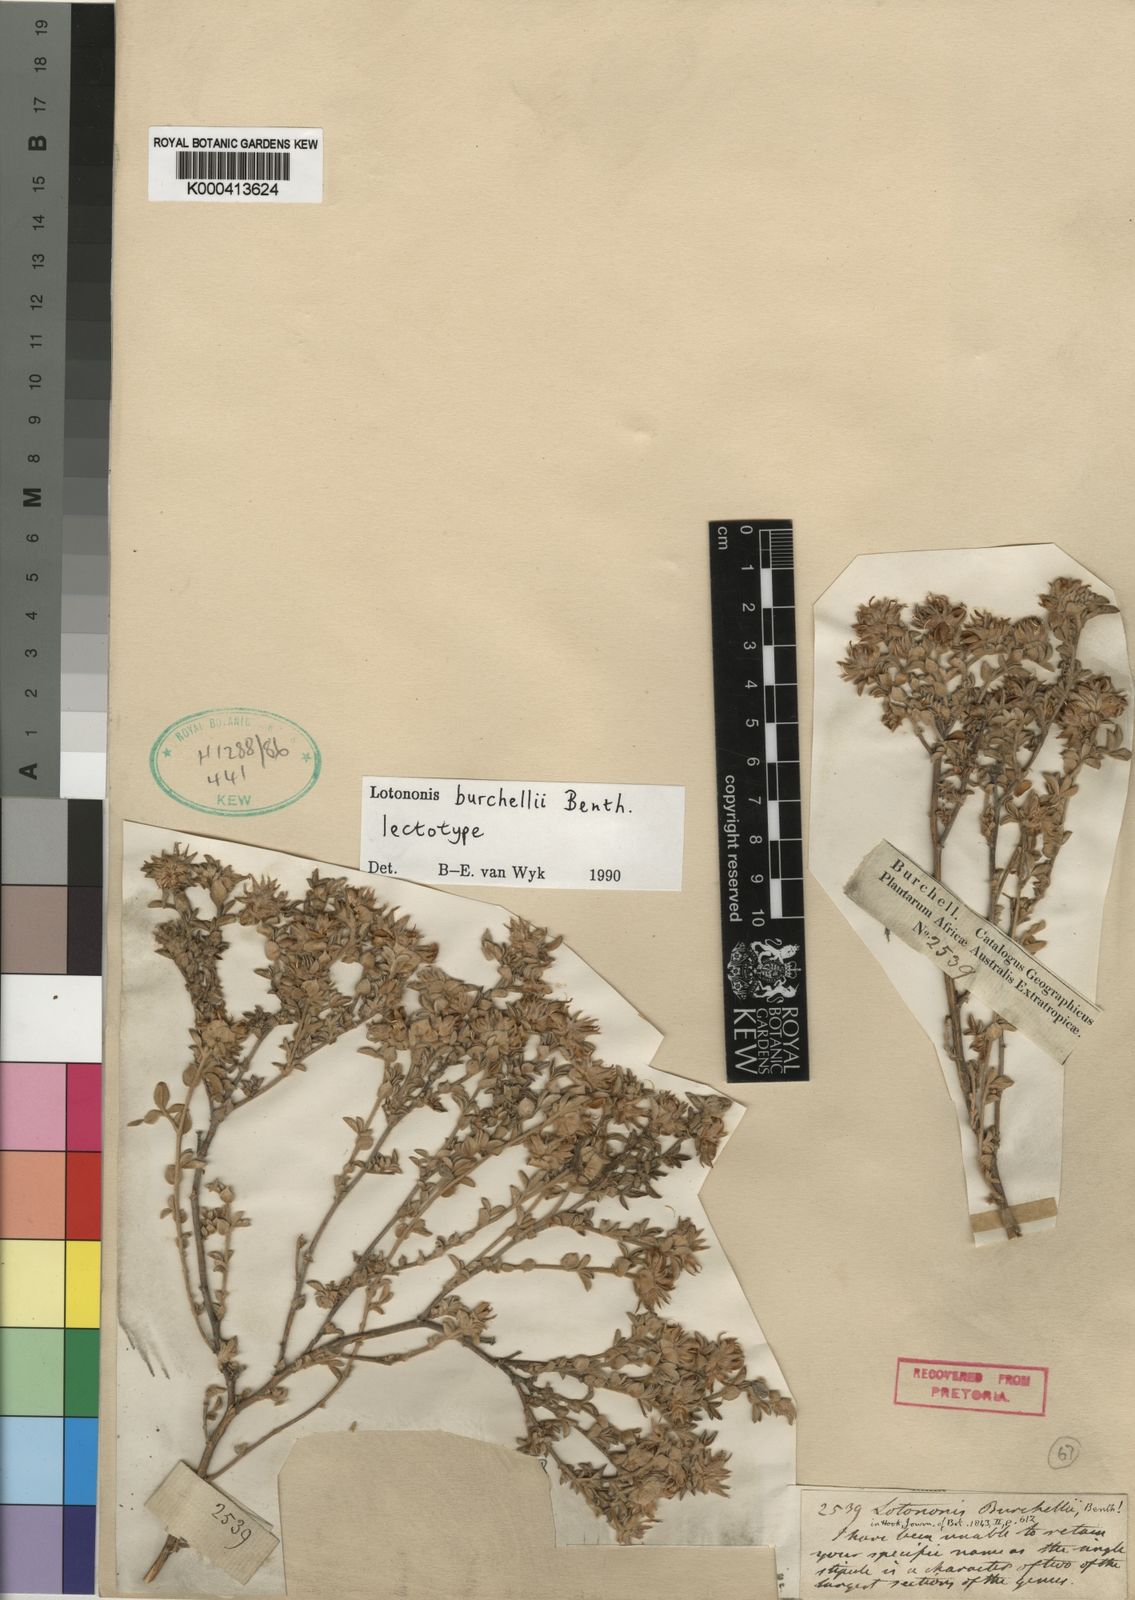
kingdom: Plantae
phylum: Tracheophyta
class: Magnoliopsida
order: Fabales
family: Fabaceae
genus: Lotononis
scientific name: Lotononis burchellii
